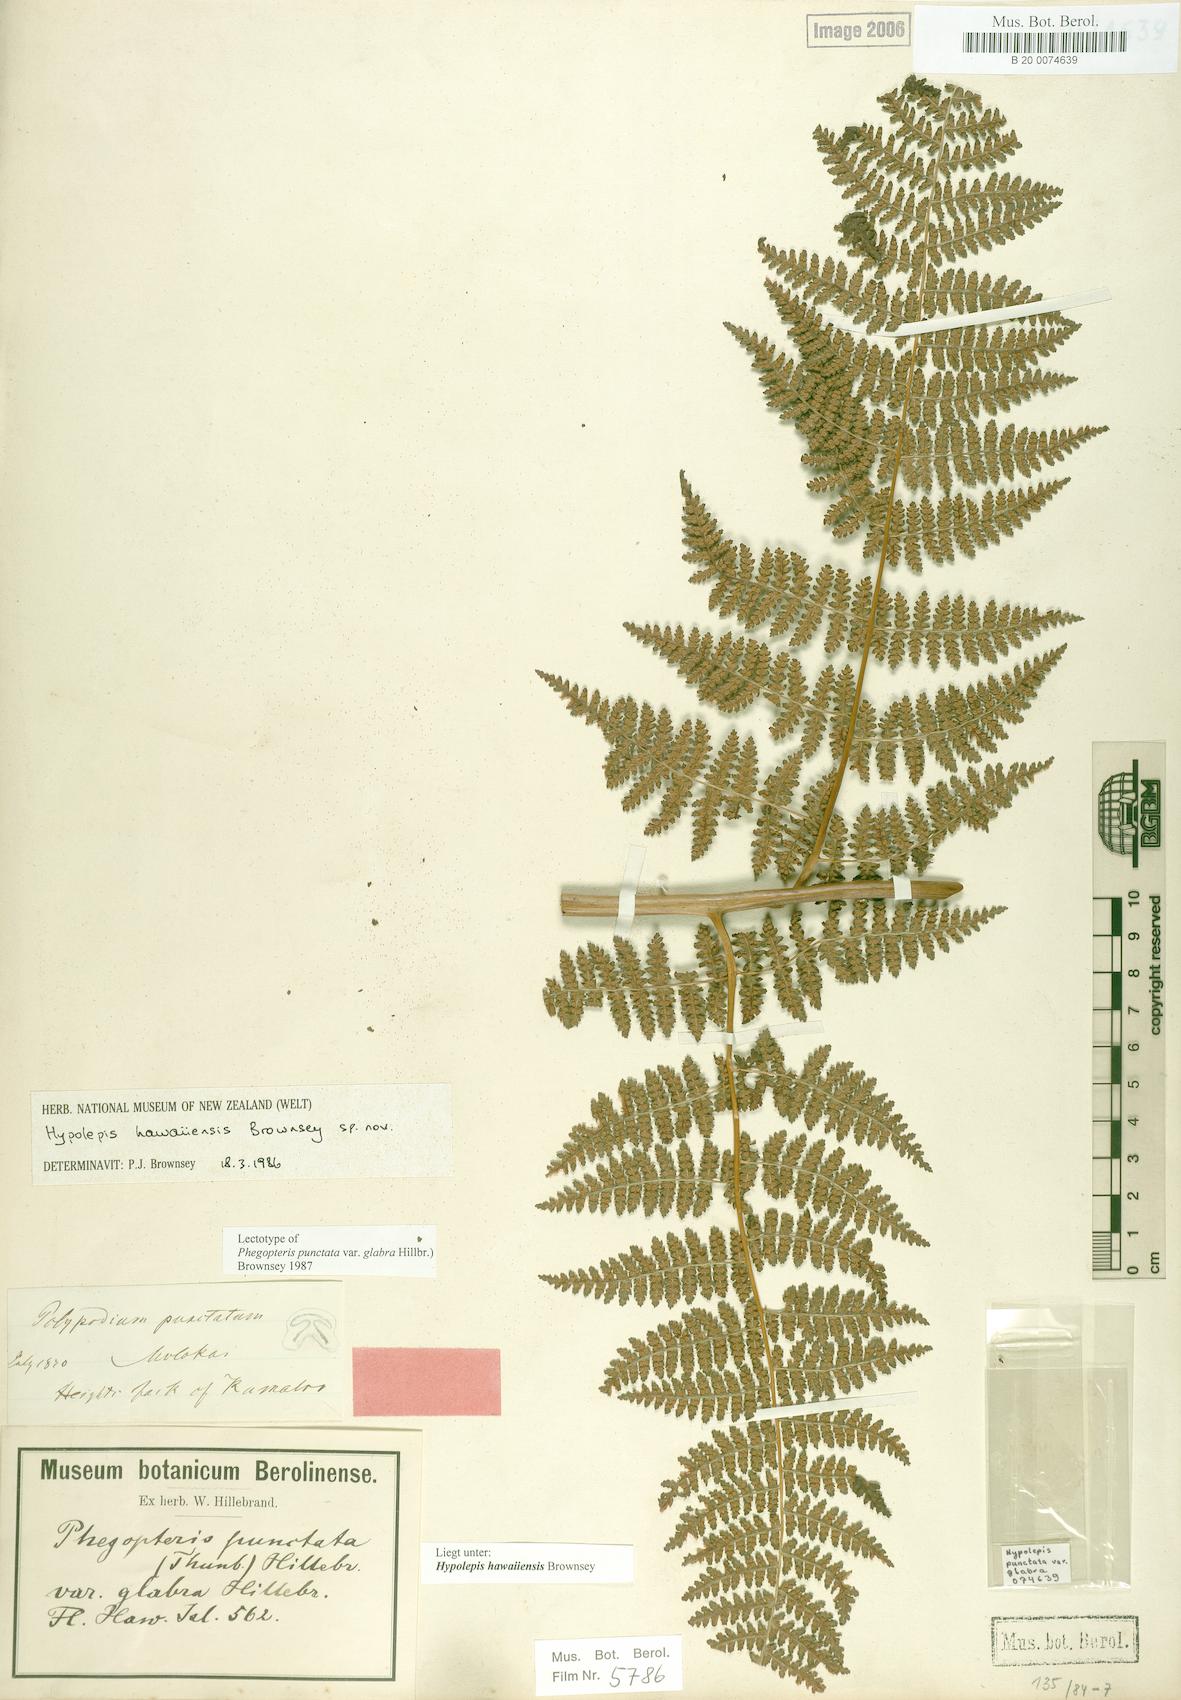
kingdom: Plantae
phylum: Tracheophyta
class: Polypodiopsida
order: Polypodiales
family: Dennstaedtiaceae
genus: Hypolepis
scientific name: Hypolepis hawaiiensis
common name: Dotted beadfern
